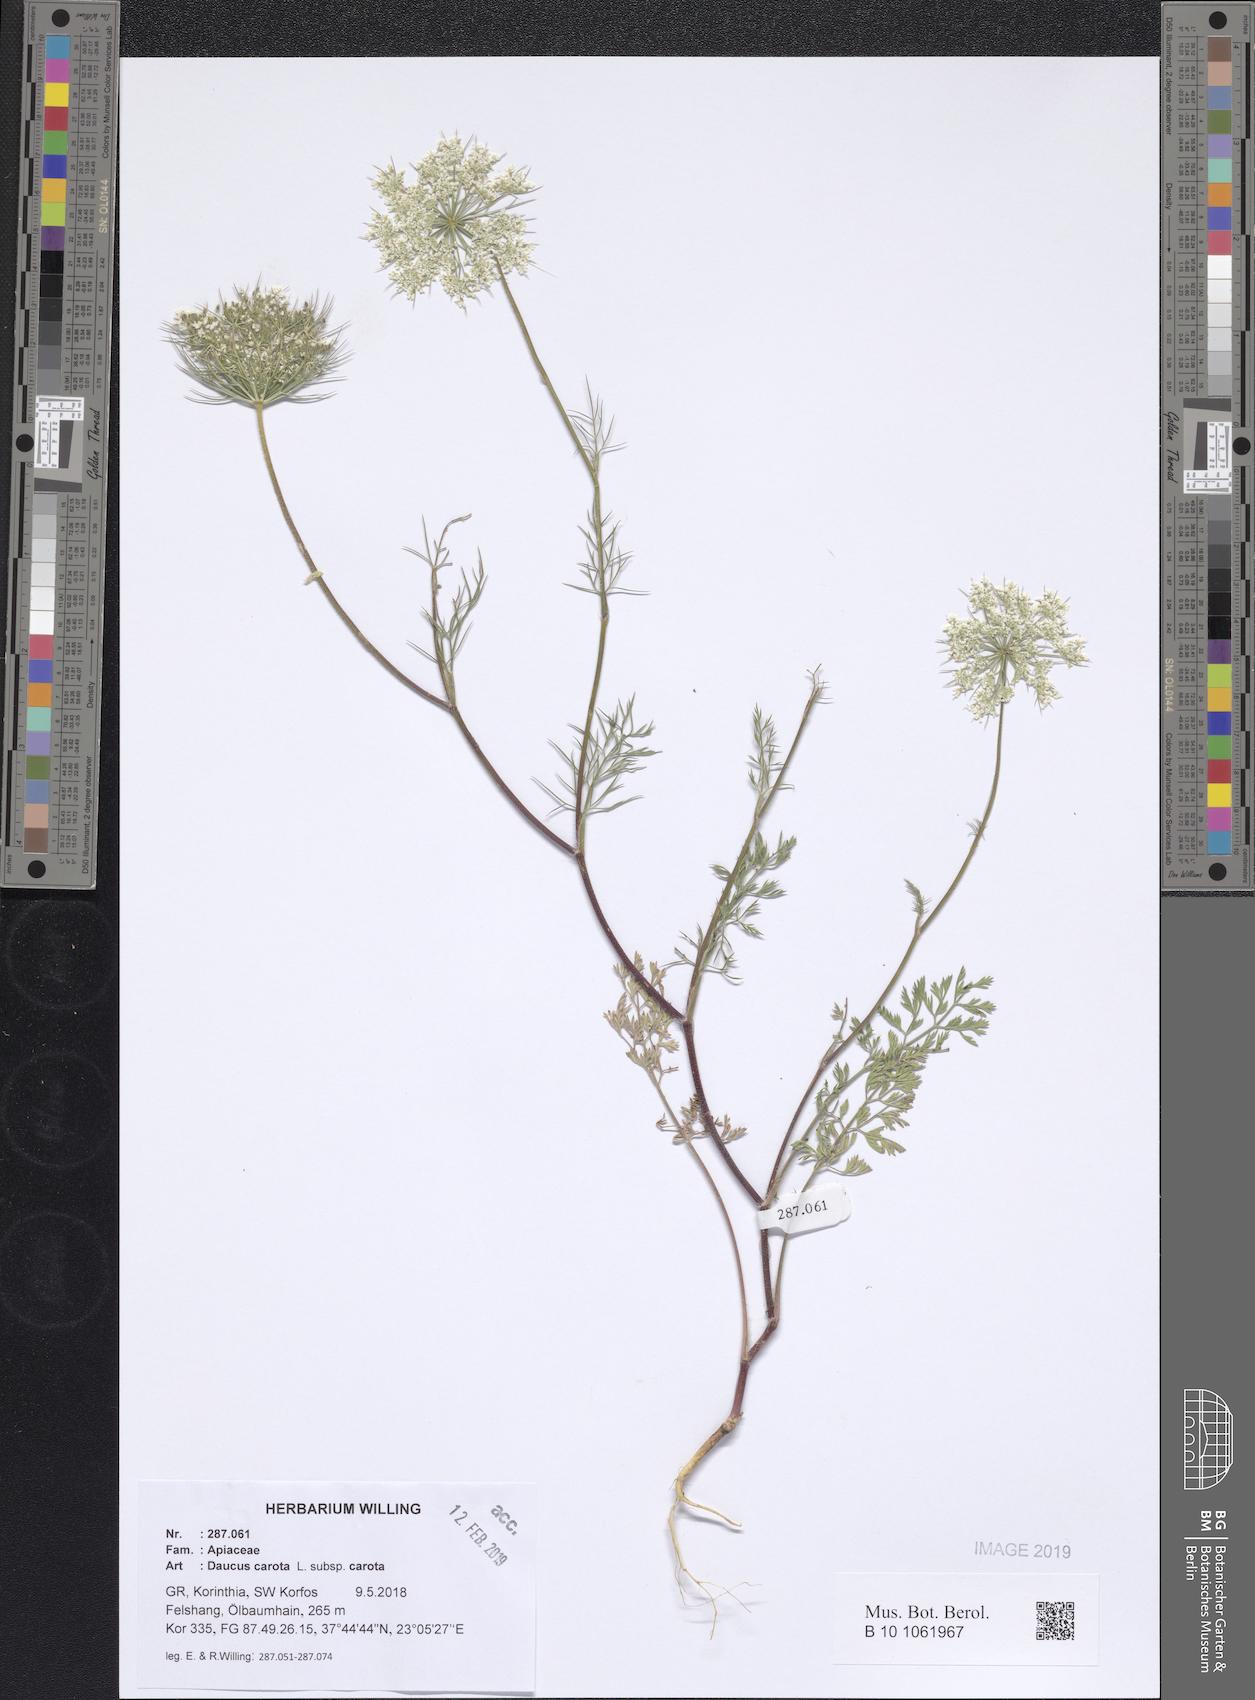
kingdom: Plantae
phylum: Tracheophyta
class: Magnoliopsida
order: Apiales
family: Apiaceae
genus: Daucus
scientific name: Daucus carota
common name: Wild carrot
